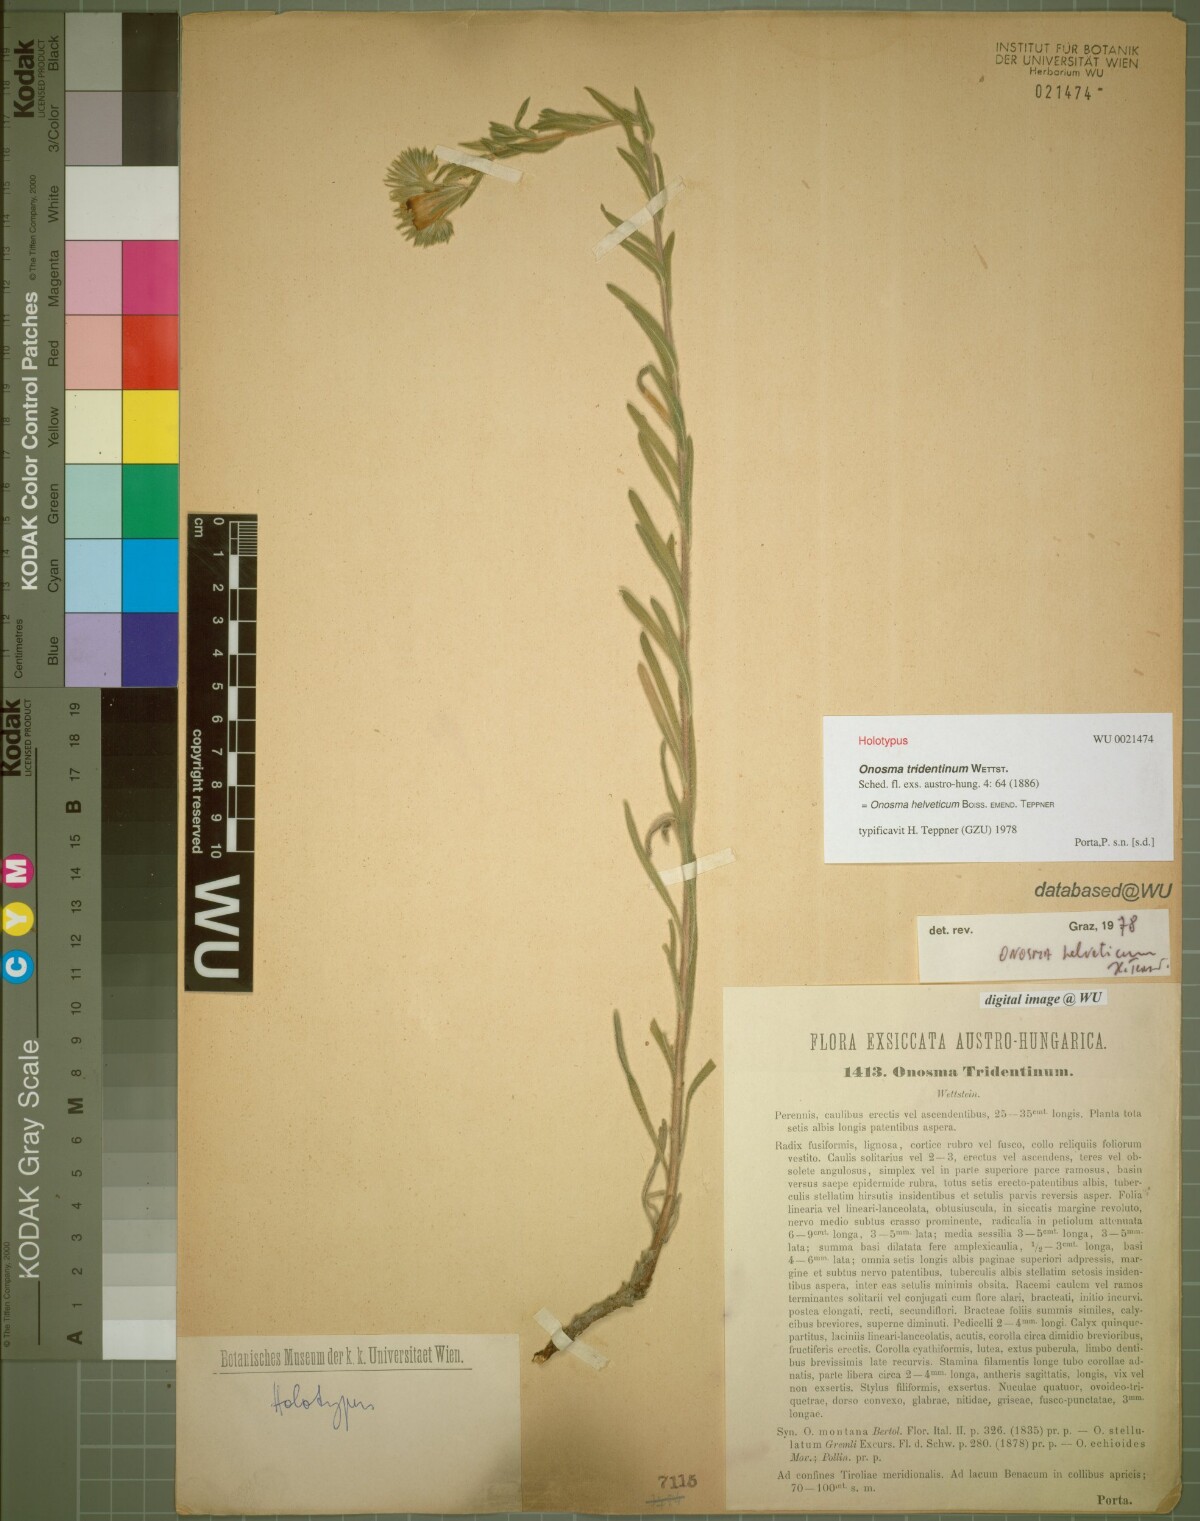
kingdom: Plantae
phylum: Tracheophyta
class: Magnoliopsida
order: Boraginales
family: Boraginaceae
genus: Onosma
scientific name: Onosma pseudoarenaria
